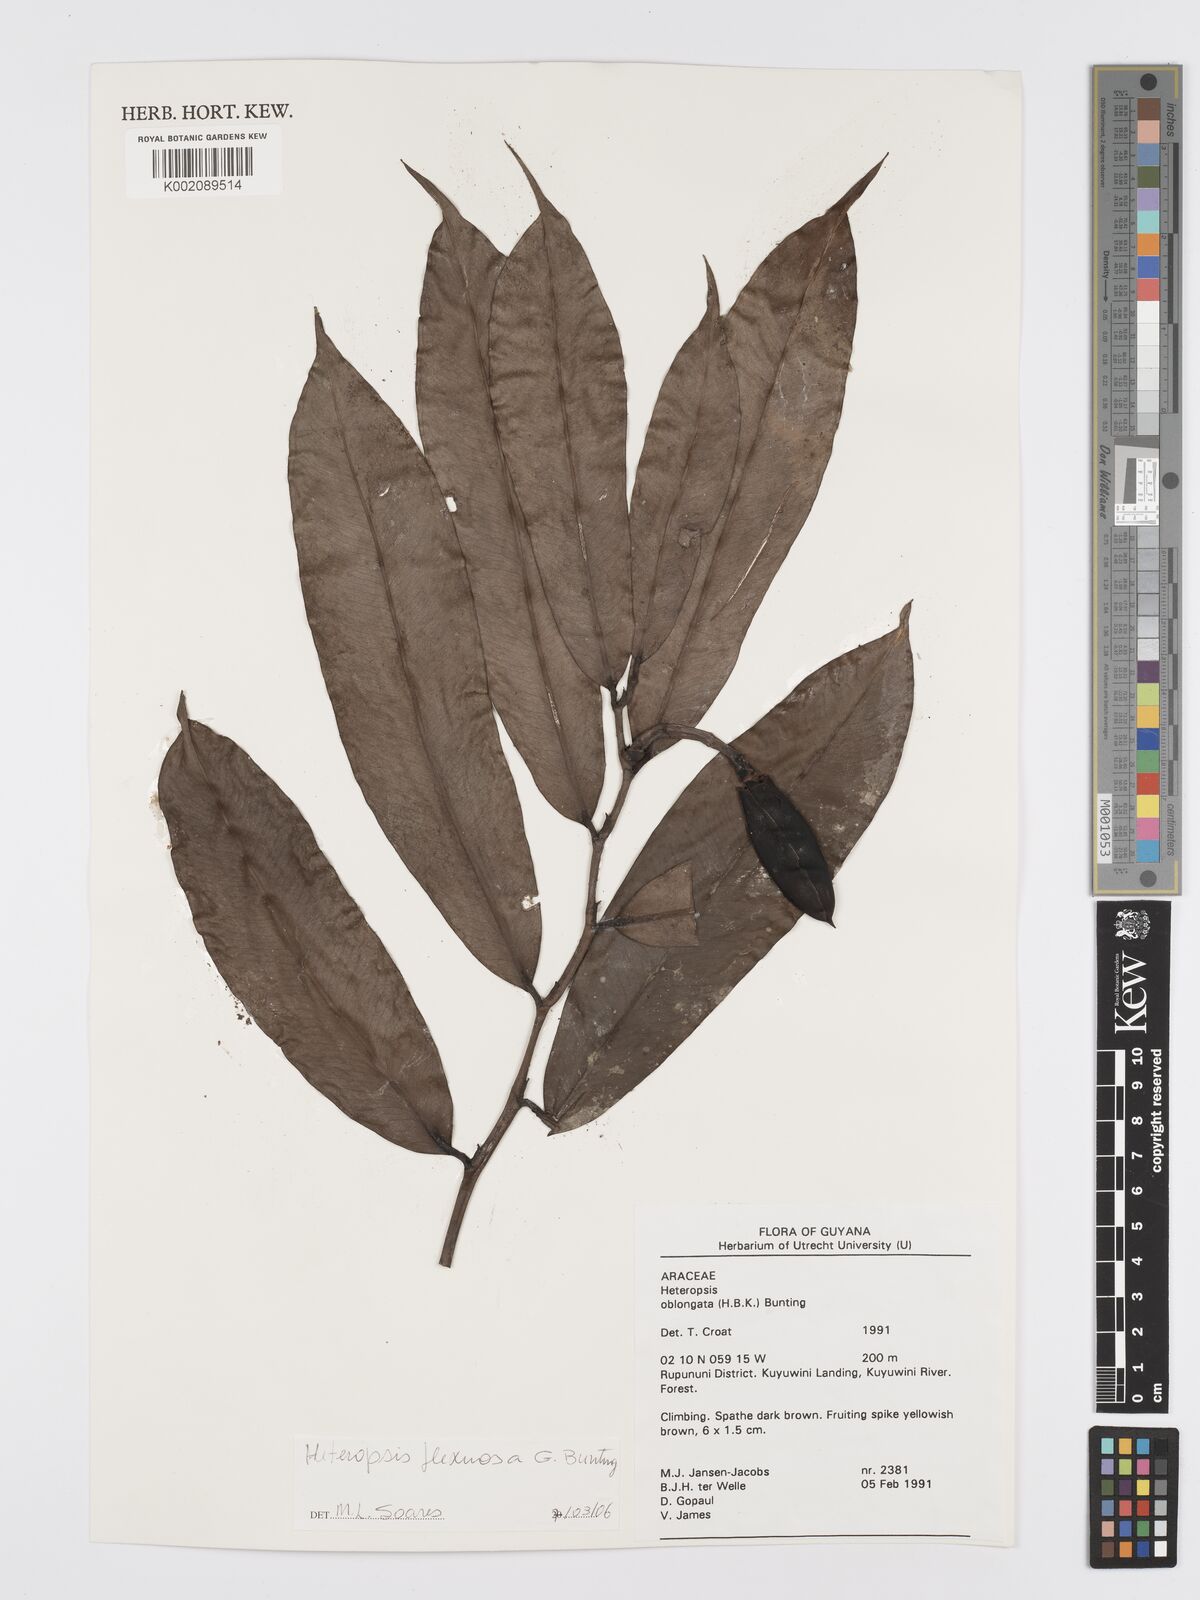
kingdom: Plantae
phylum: Tracheophyta
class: Liliopsida
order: Alismatales
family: Araceae
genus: Heteropsis
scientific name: Heteropsis oblongifolia
